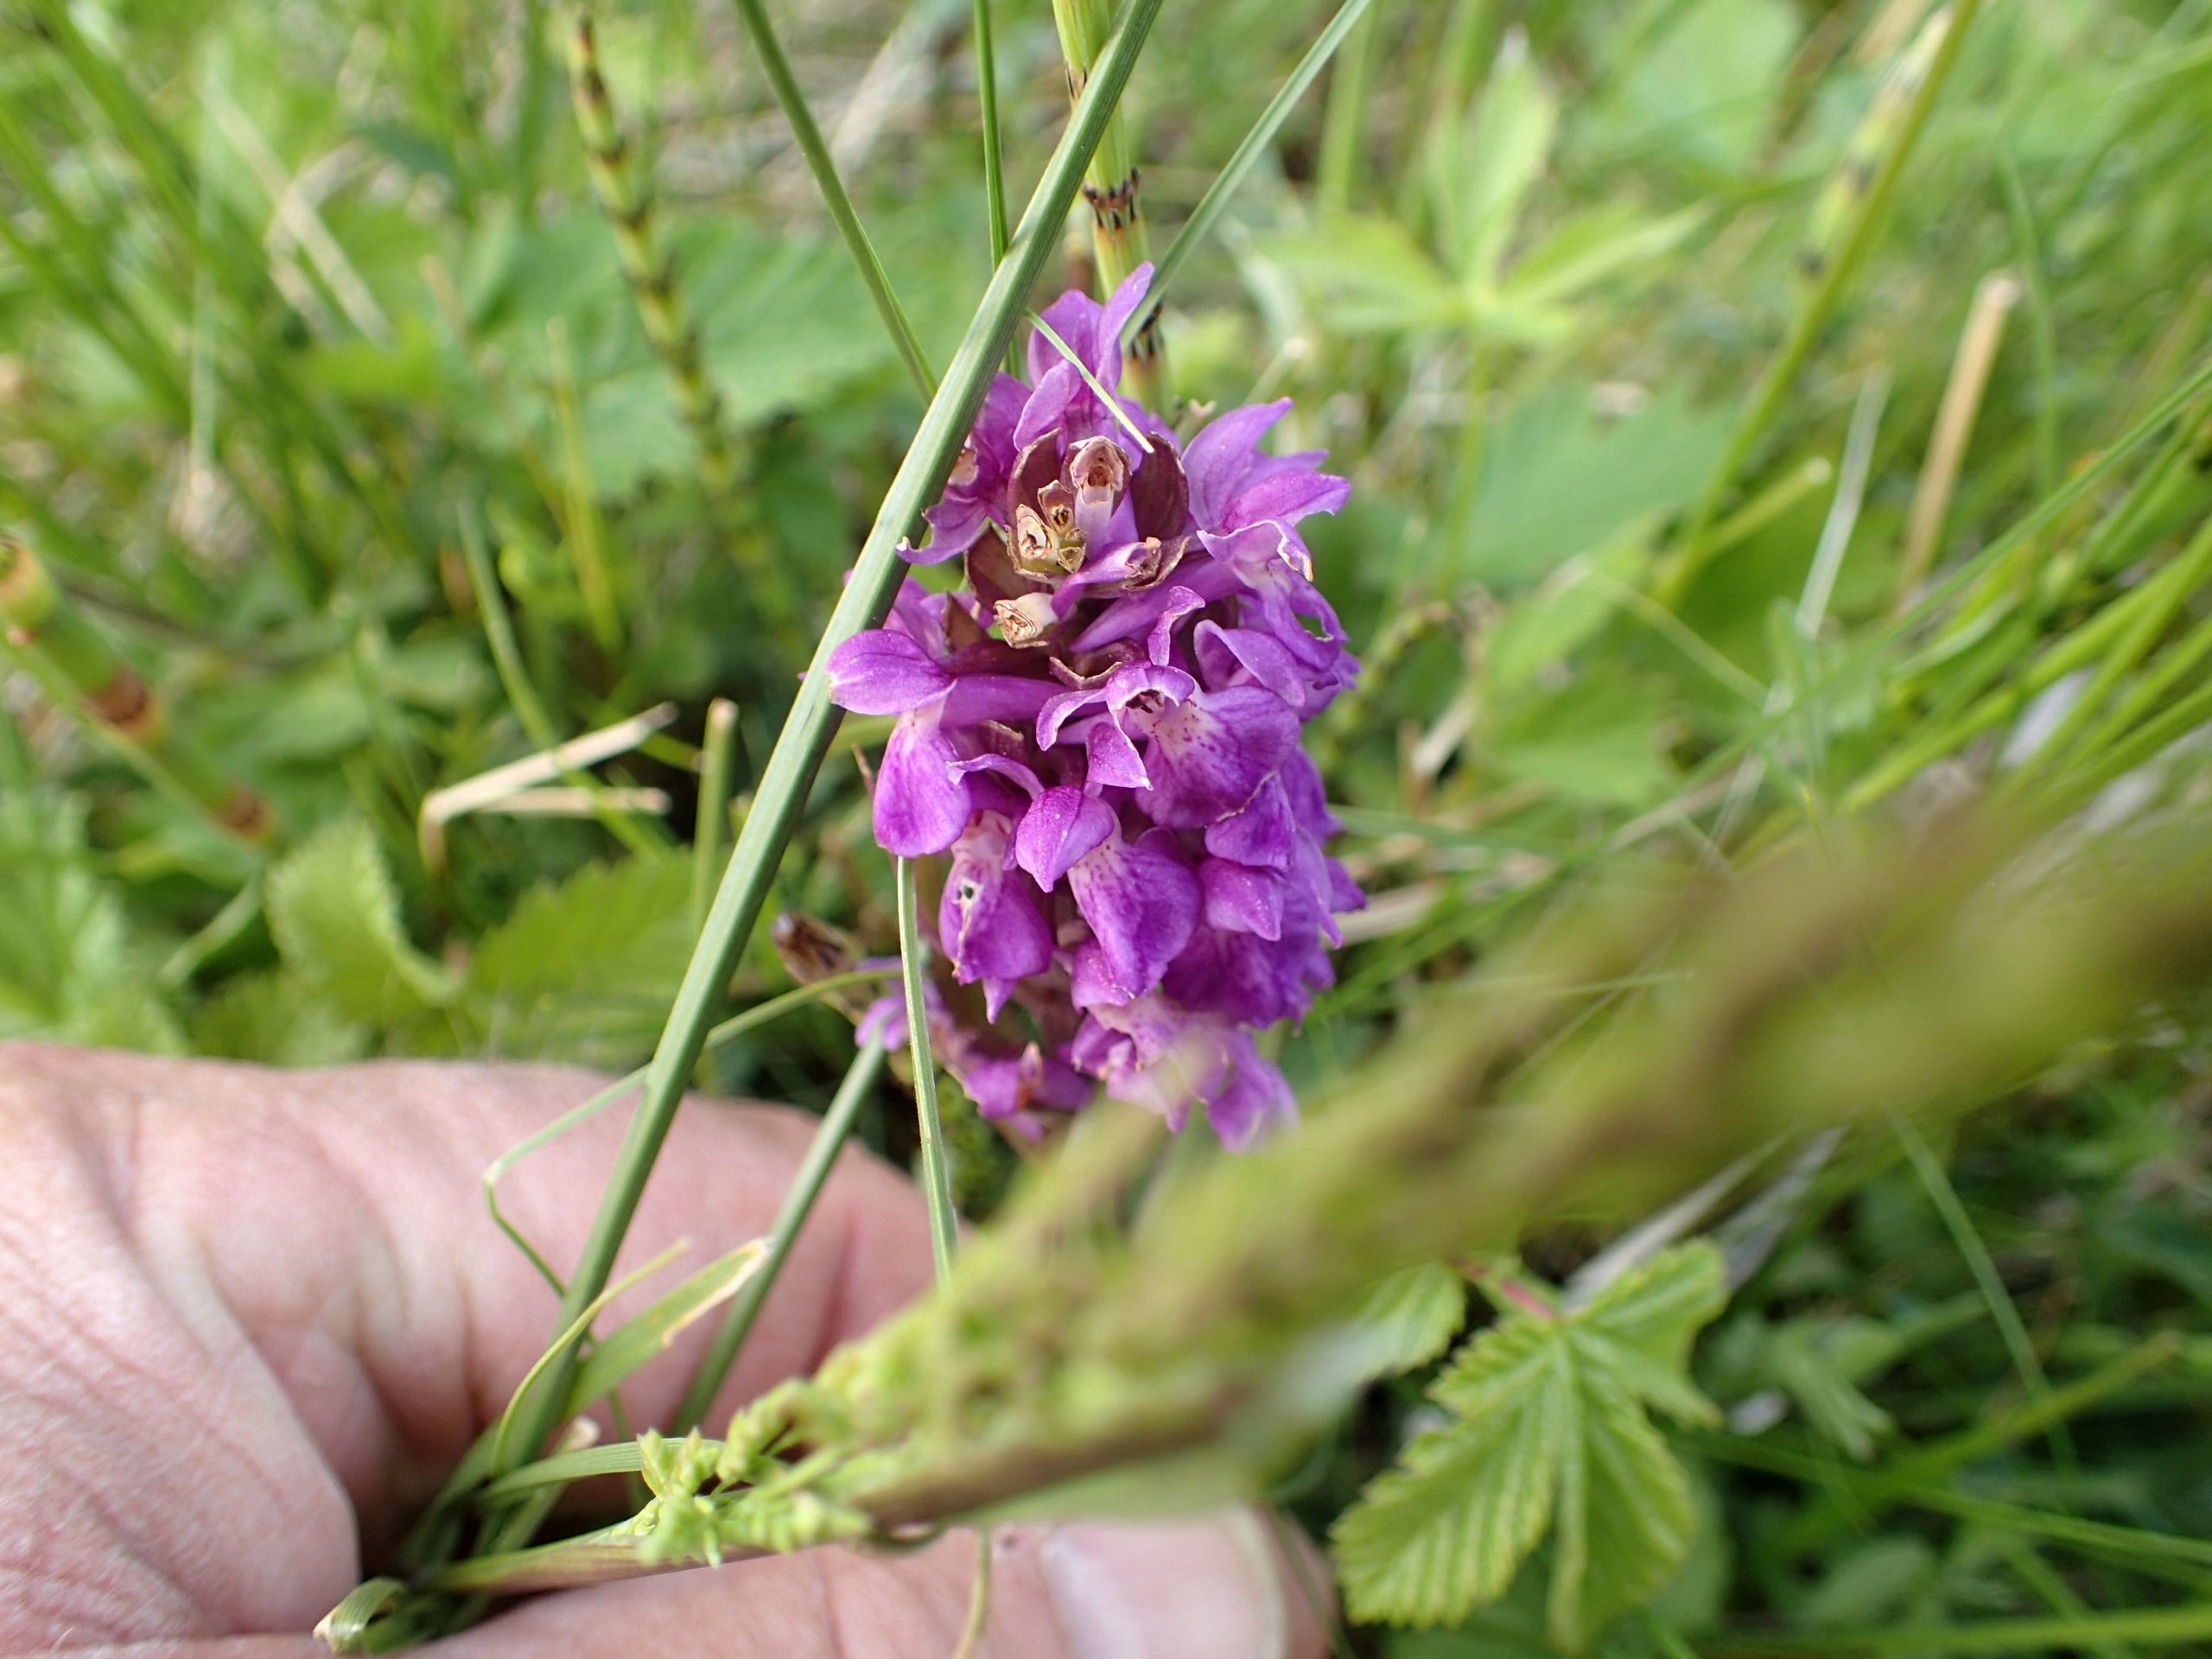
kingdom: Plantae
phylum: Tracheophyta
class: Liliopsida
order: Asparagales
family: Orchidaceae
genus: Dactylorhiza
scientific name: Dactylorhiza majalis
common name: Maj-gøgeurt
